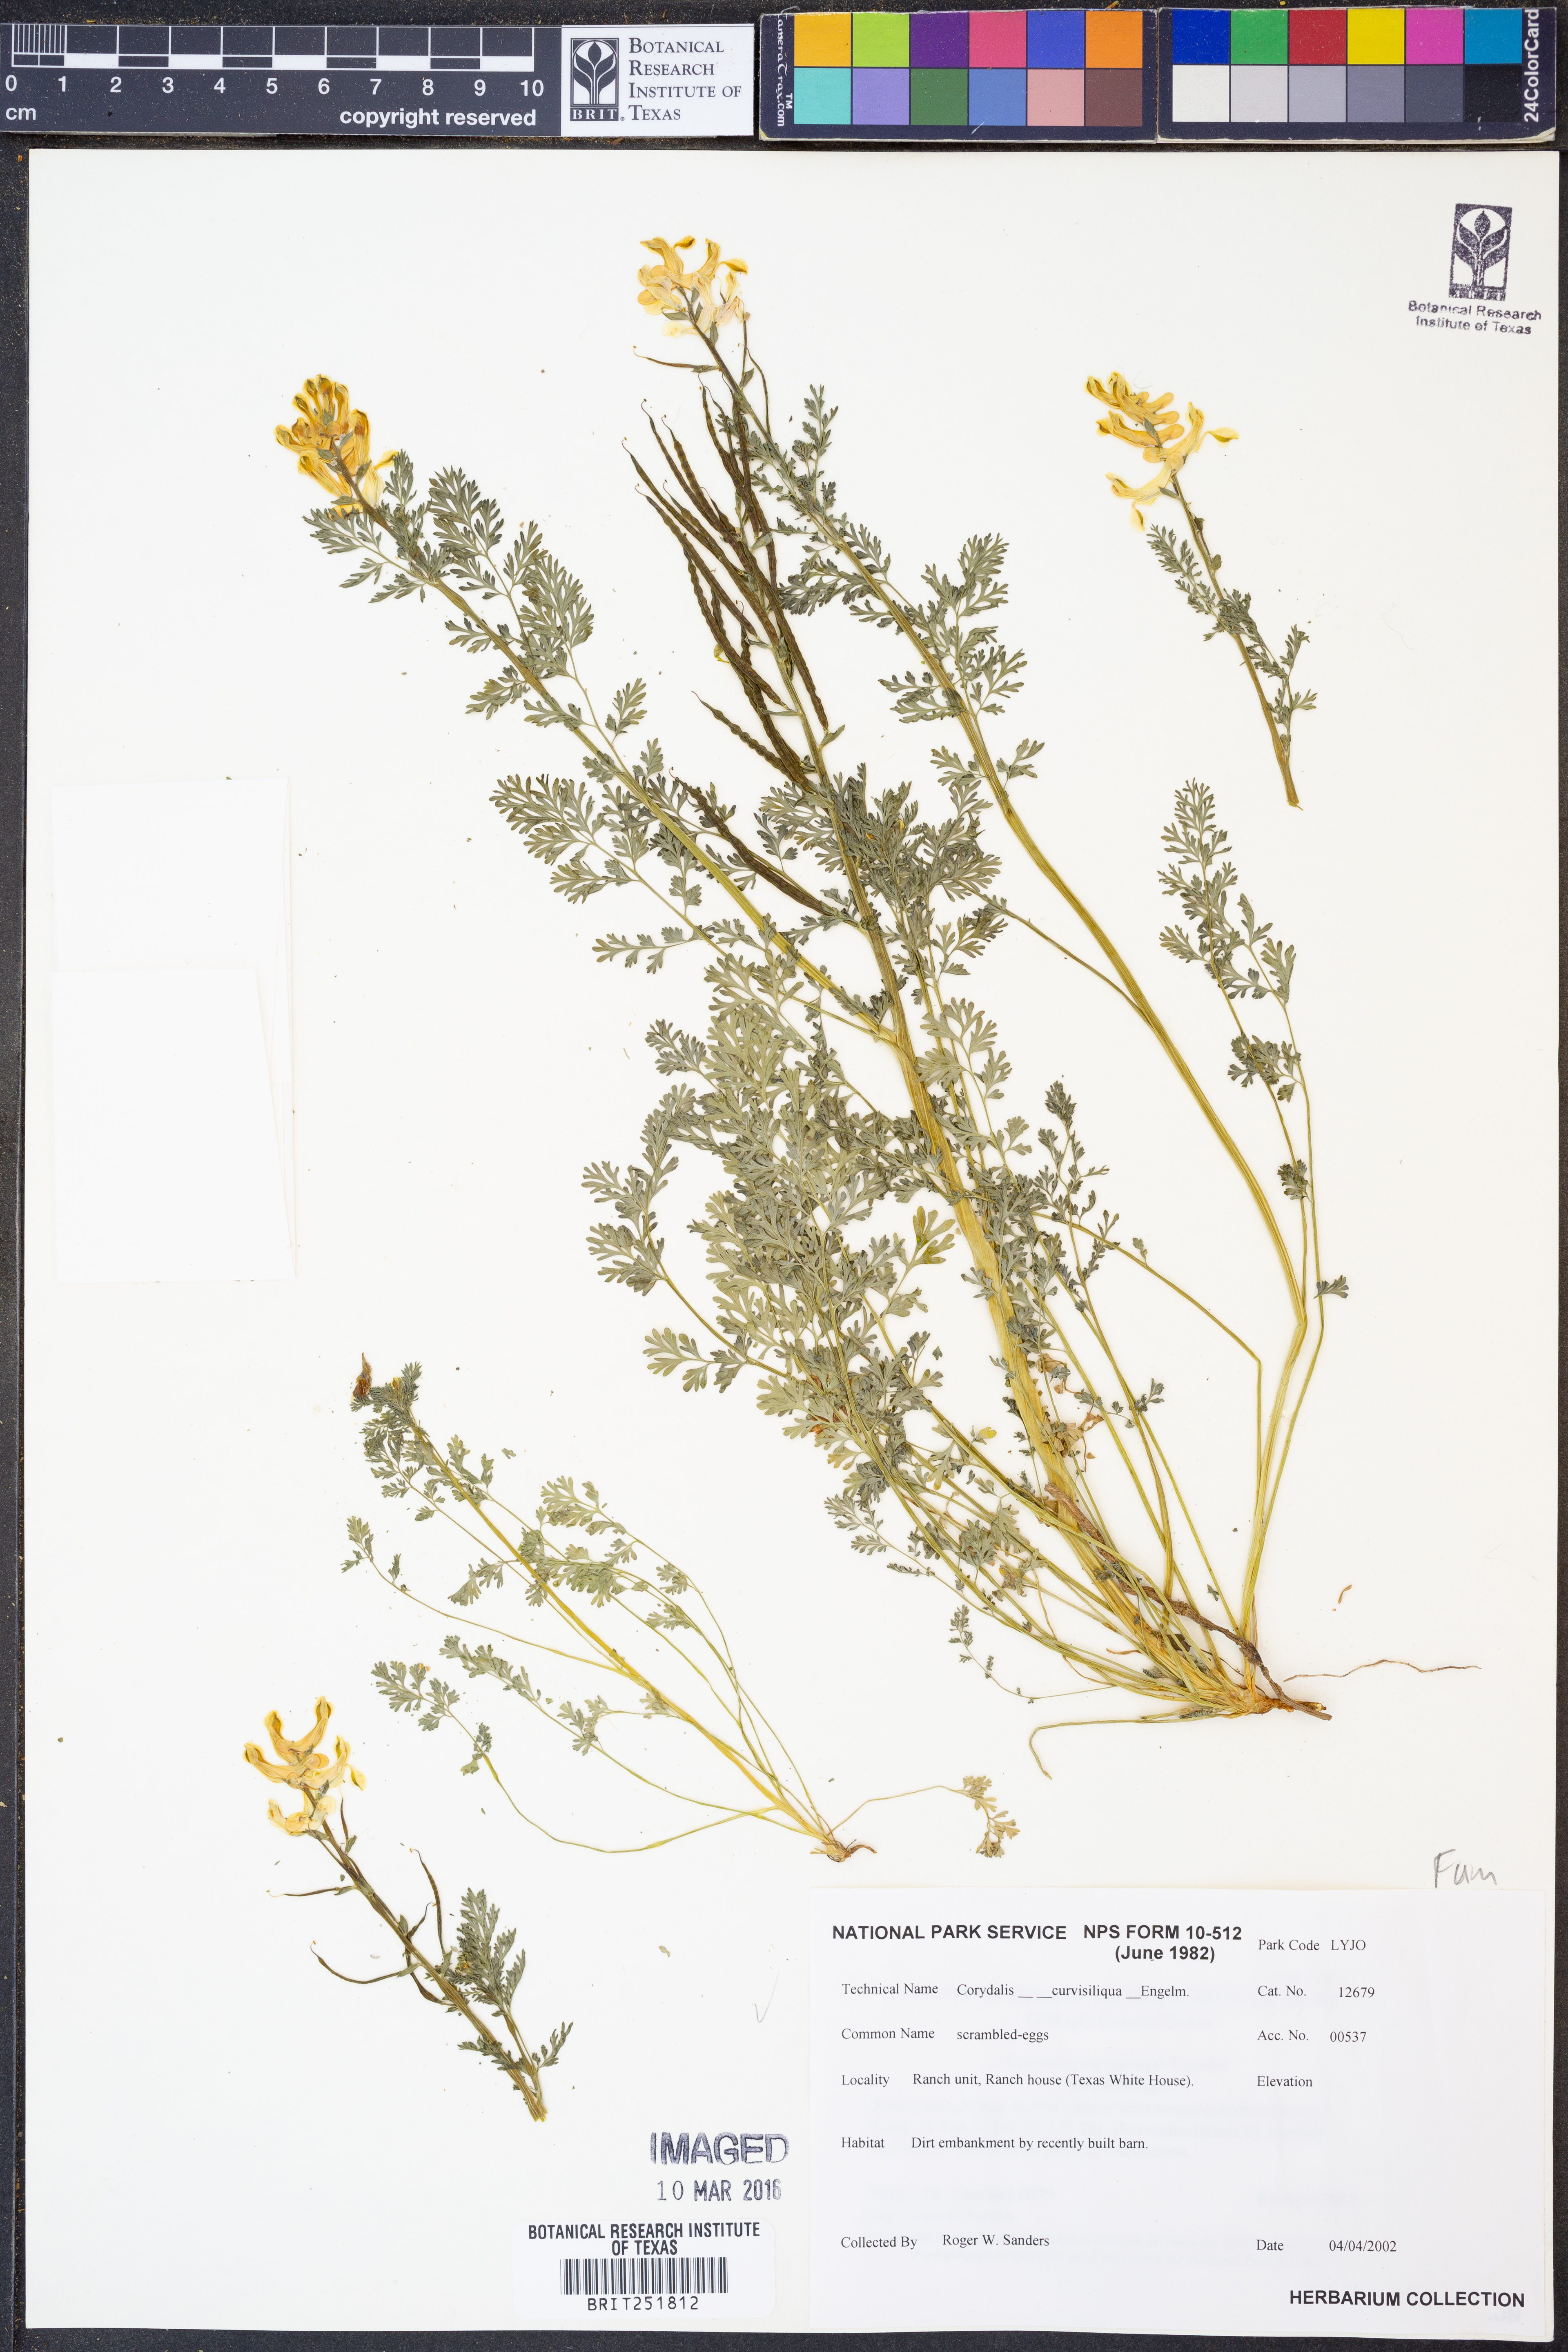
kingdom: Plantae
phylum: Tracheophyta
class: Magnoliopsida
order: Ranunculales
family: Papaveraceae
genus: Corydalis
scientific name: Corydalis curvisiliqua
